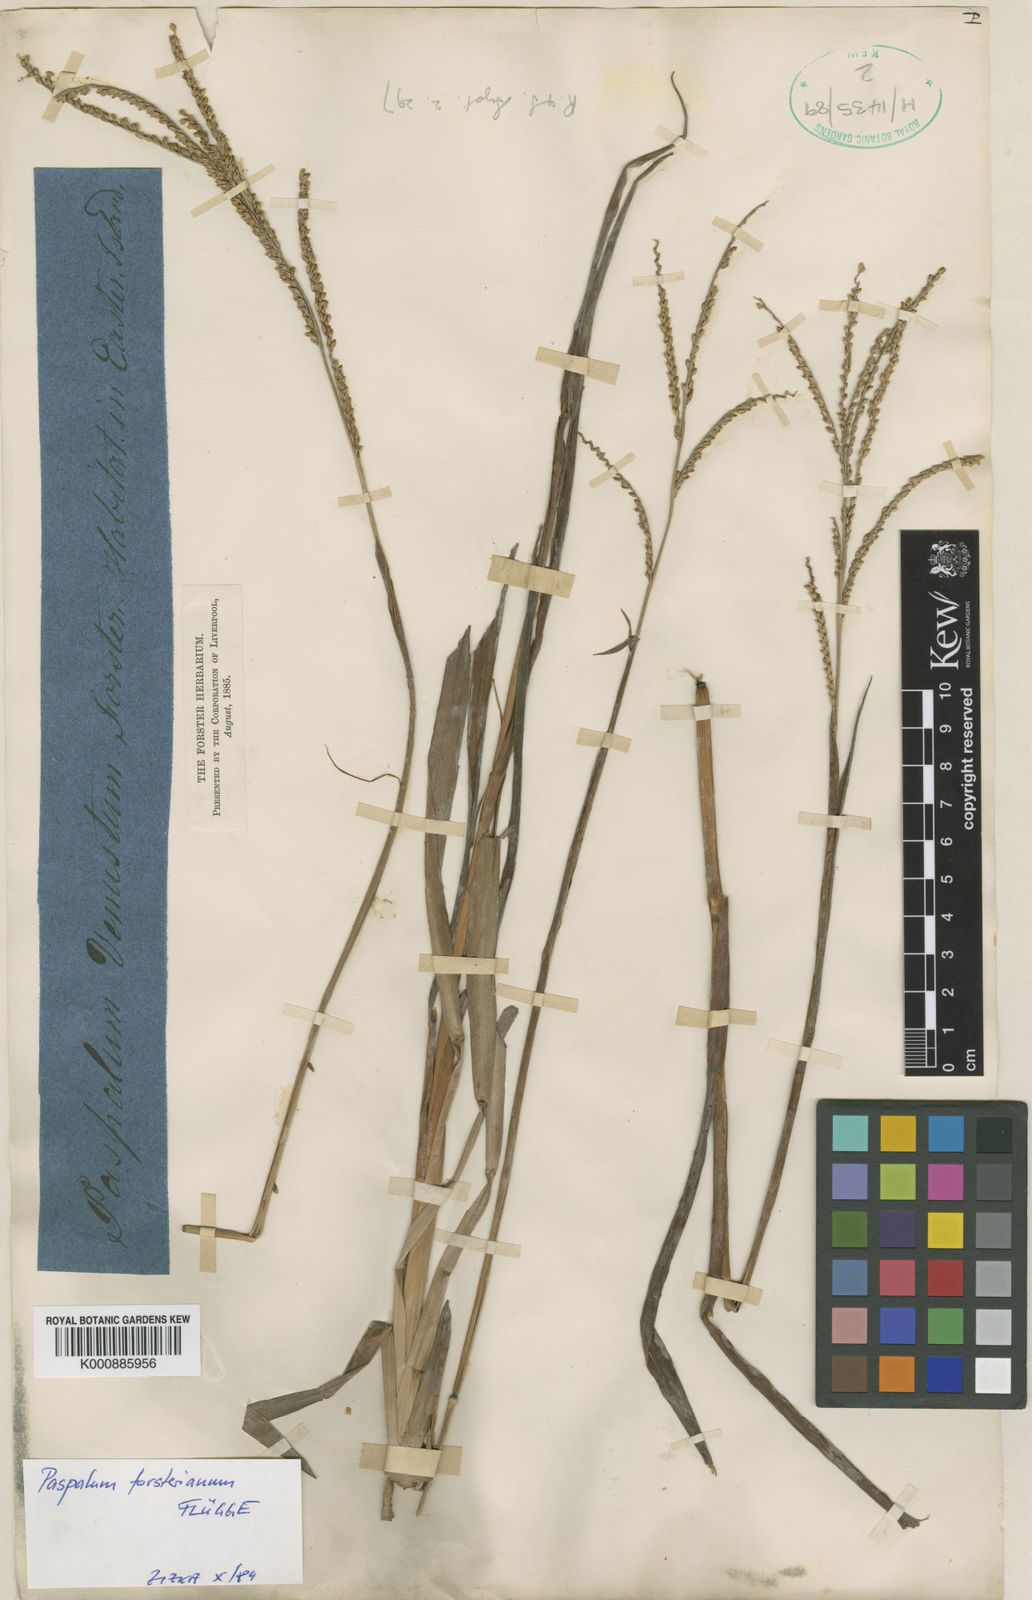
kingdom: Plantae
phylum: Tracheophyta
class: Liliopsida
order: Poales
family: Poaceae
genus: Paspalum
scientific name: Paspalum
